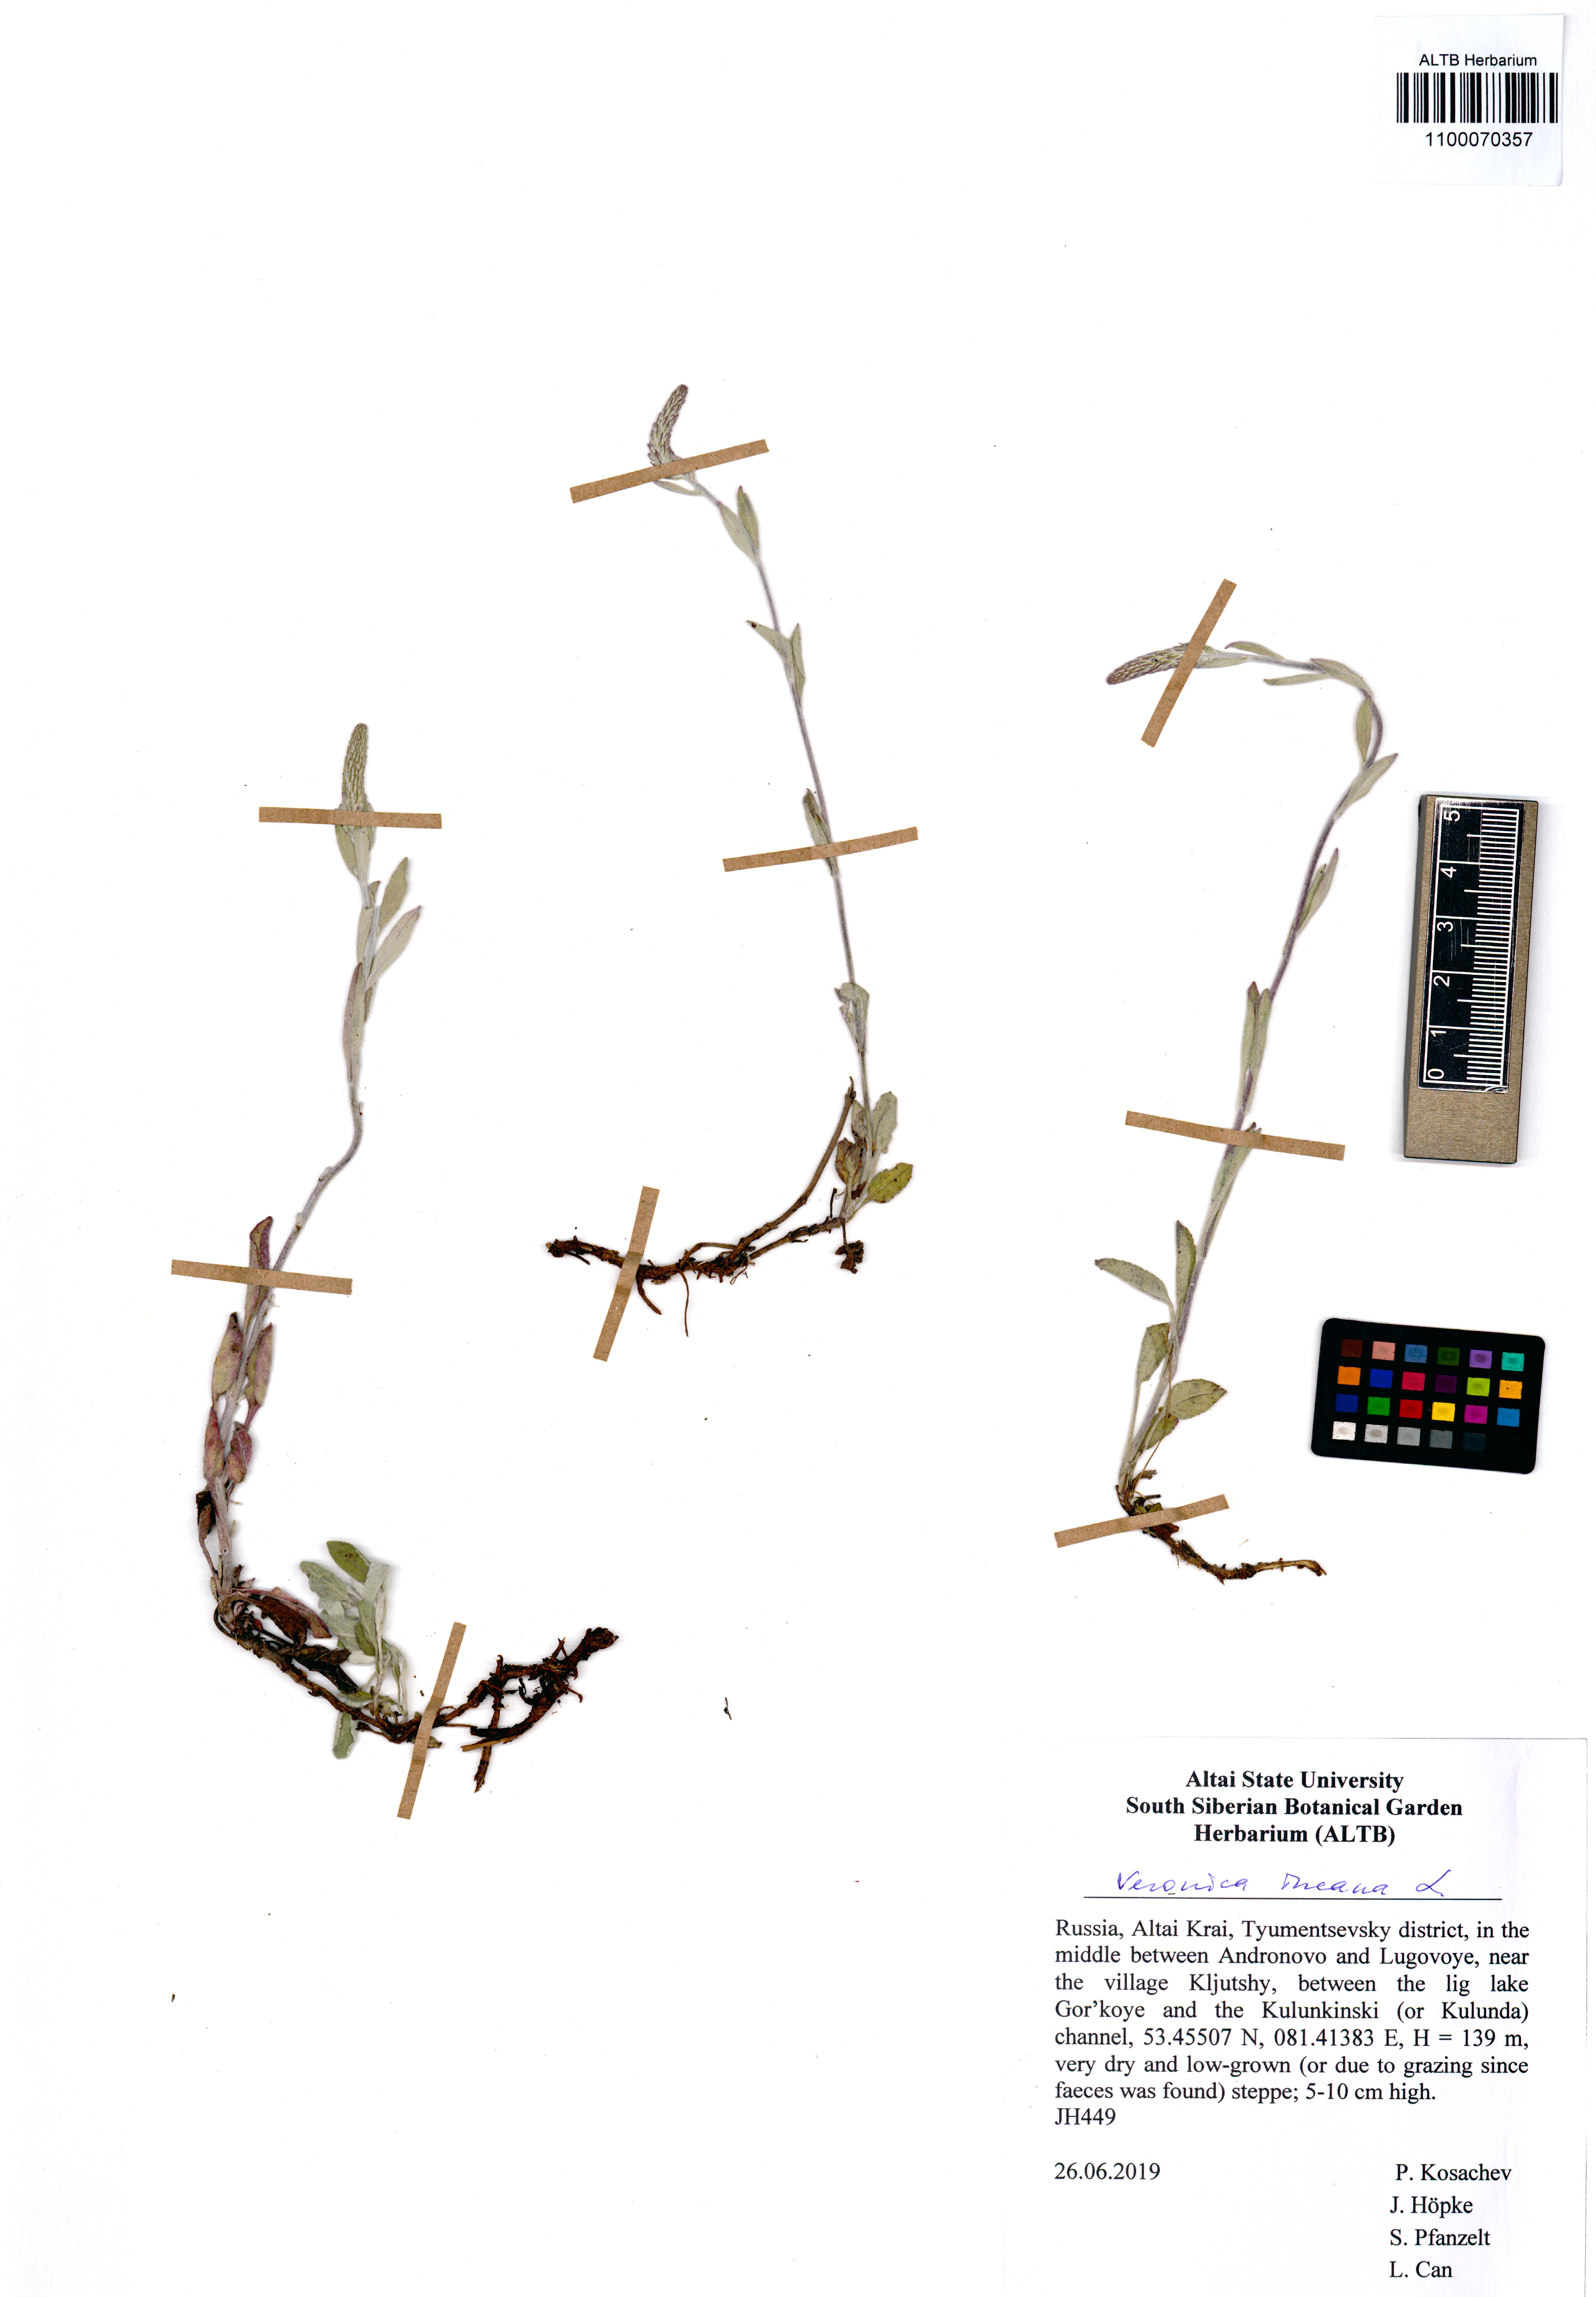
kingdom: Plantae
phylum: Tracheophyta
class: Magnoliopsida
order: Lamiales
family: Plantaginaceae
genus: Veronica
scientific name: Veronica incana
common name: Silver speedwell
